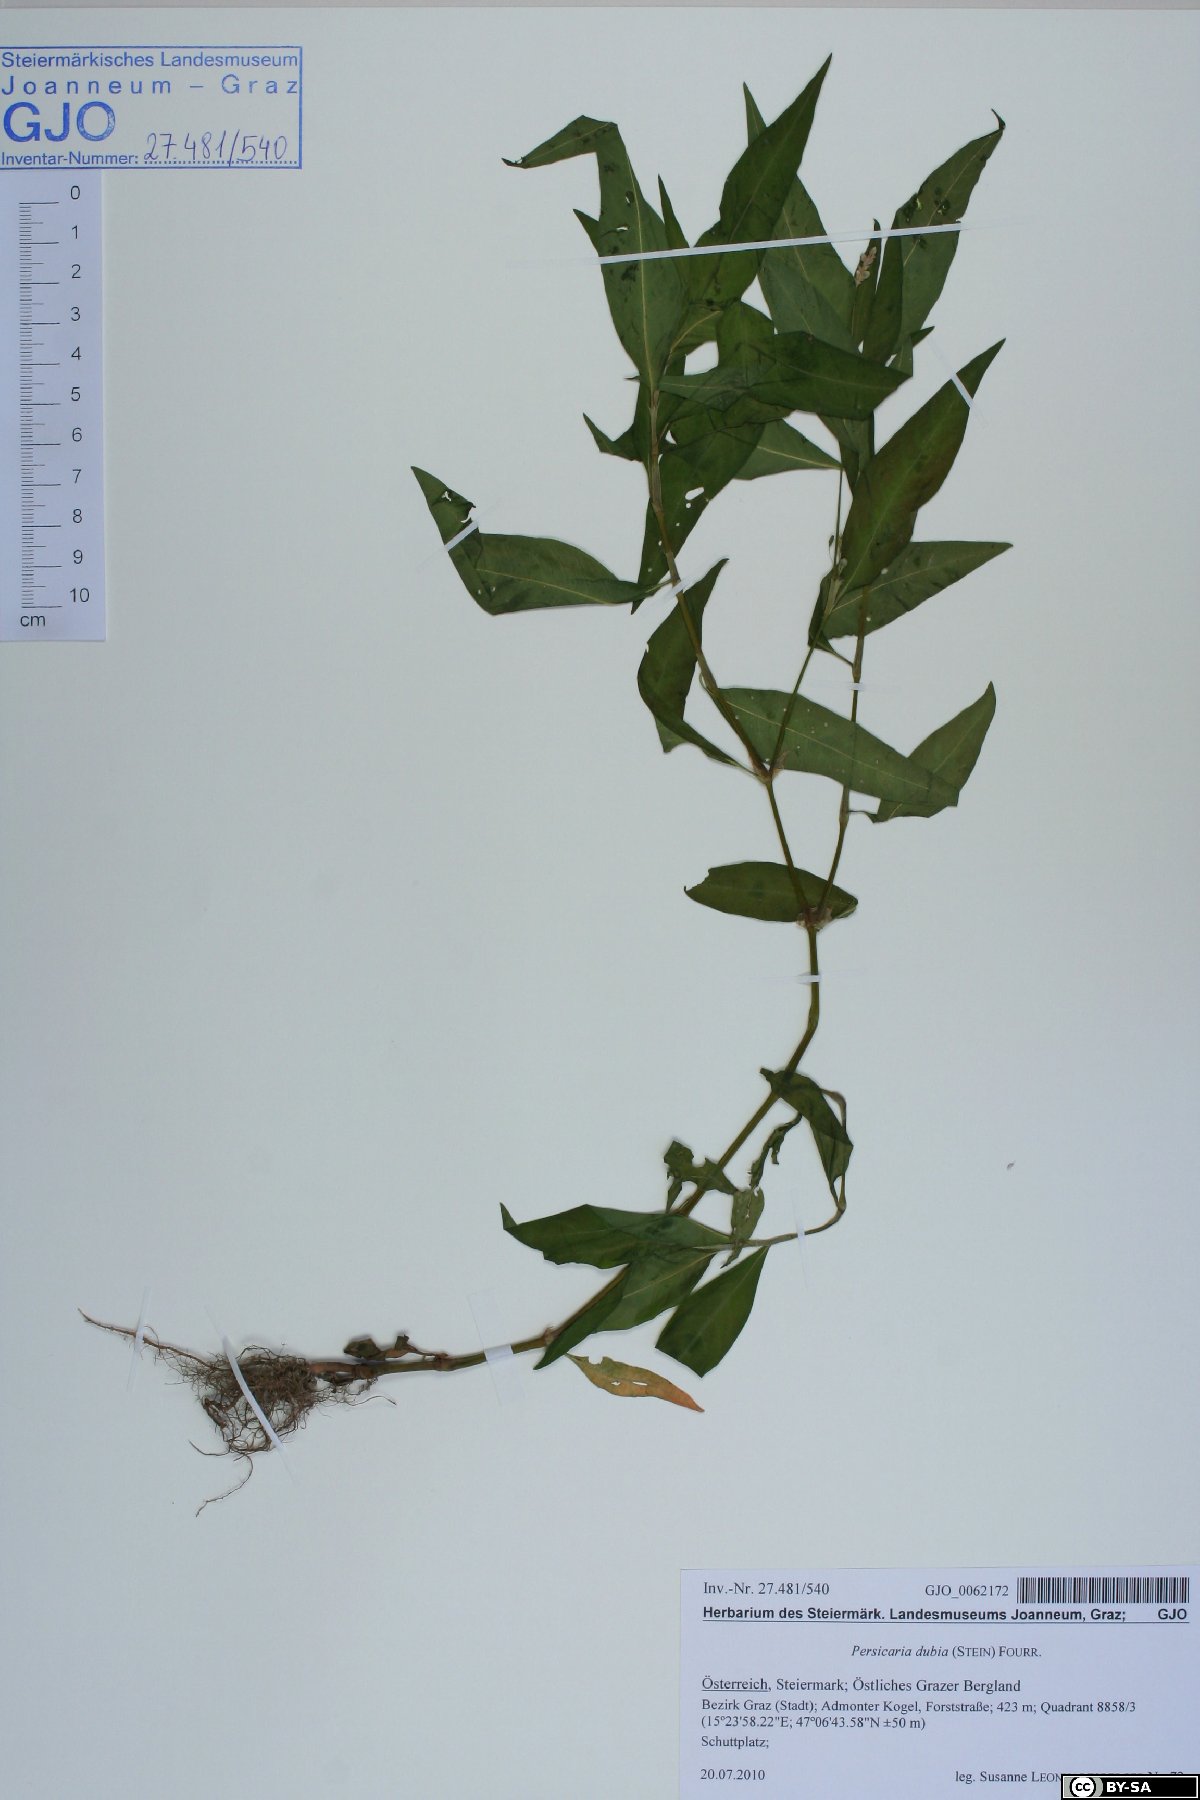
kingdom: Plantae
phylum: Tracheophyta
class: Magnoliopsida
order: Caryophyllales
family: Polygonaceae
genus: Persicaria
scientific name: Persicaria mitis
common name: Tasteless water-pepper
